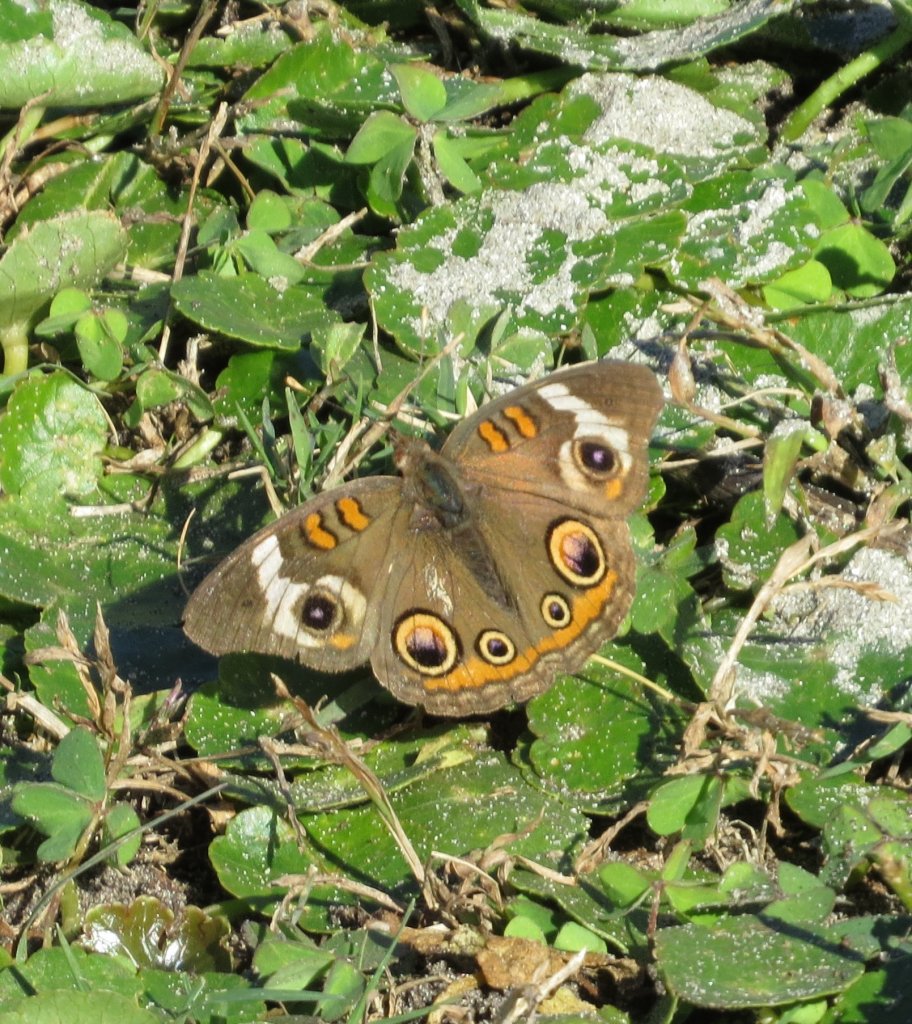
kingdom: Animalia
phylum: Arthropoda
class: Insecta
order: Lepidoptera
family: Nymphalidae
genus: Junonia
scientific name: Junonia coenia
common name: Common Buckeye
